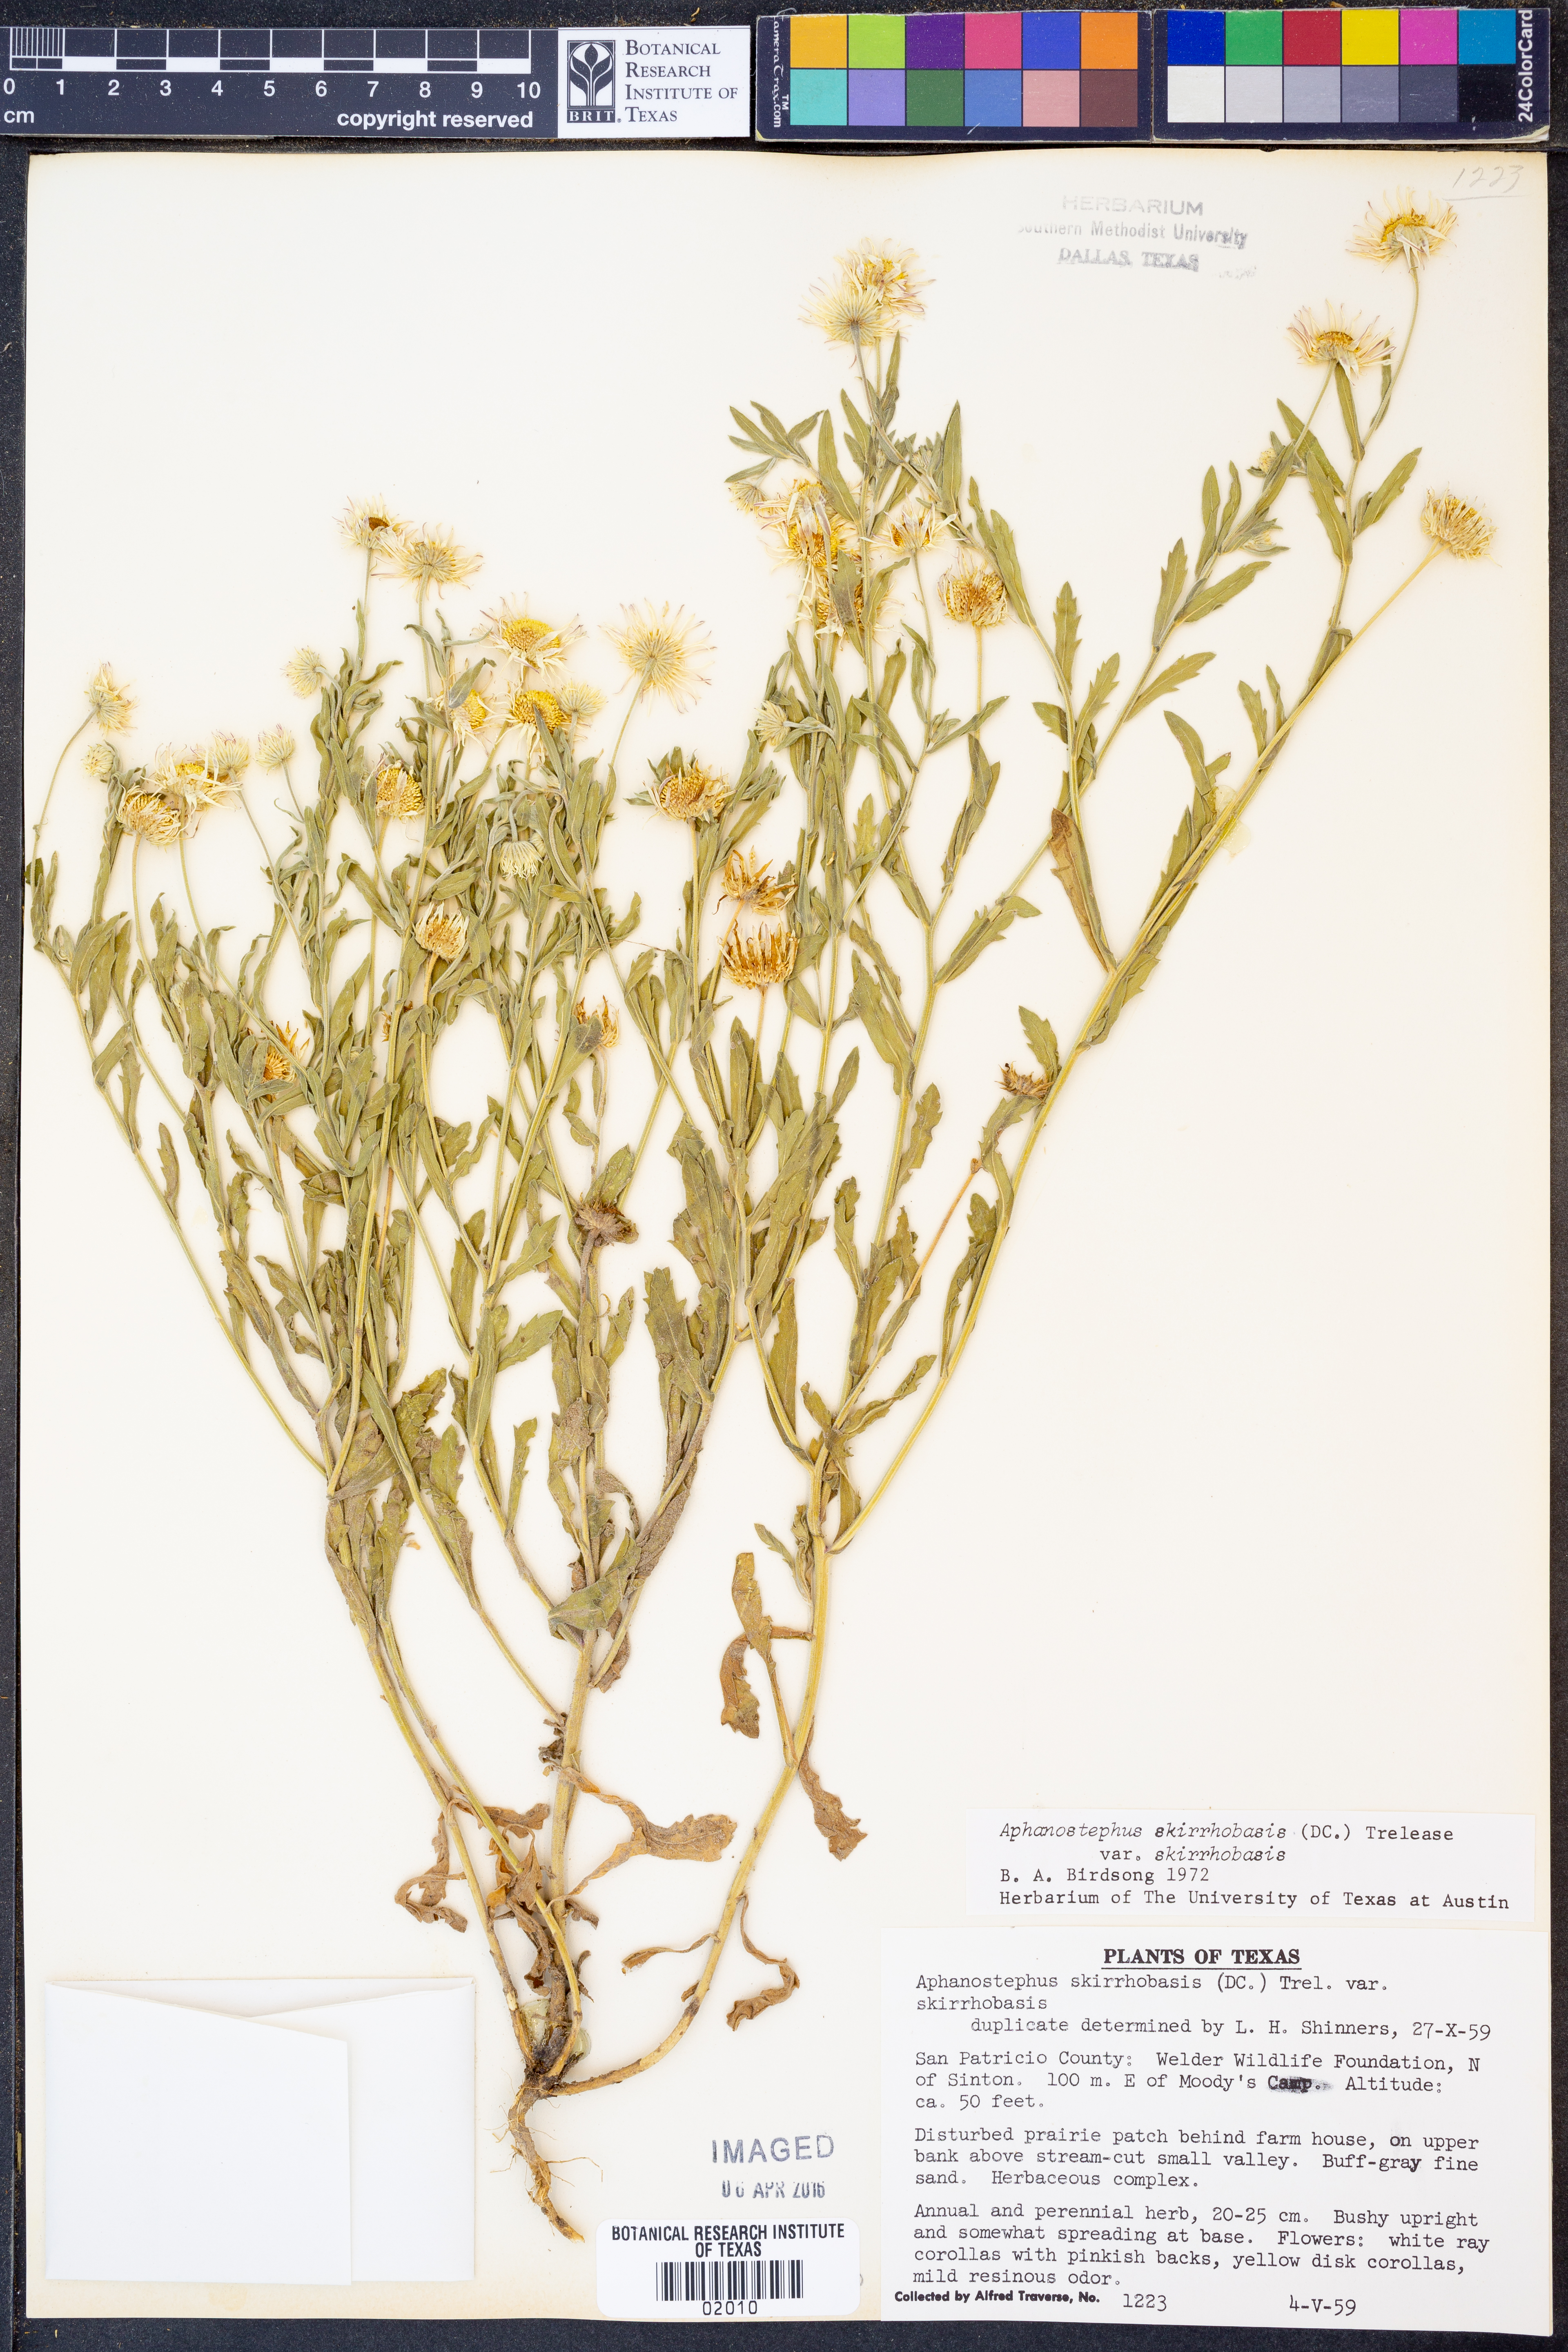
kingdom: Plantae
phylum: Tracheophyta
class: Magnoliopsida
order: Asterales
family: Asteraceae
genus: Aphanostephus
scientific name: Aphanostephus skirrhobasis
